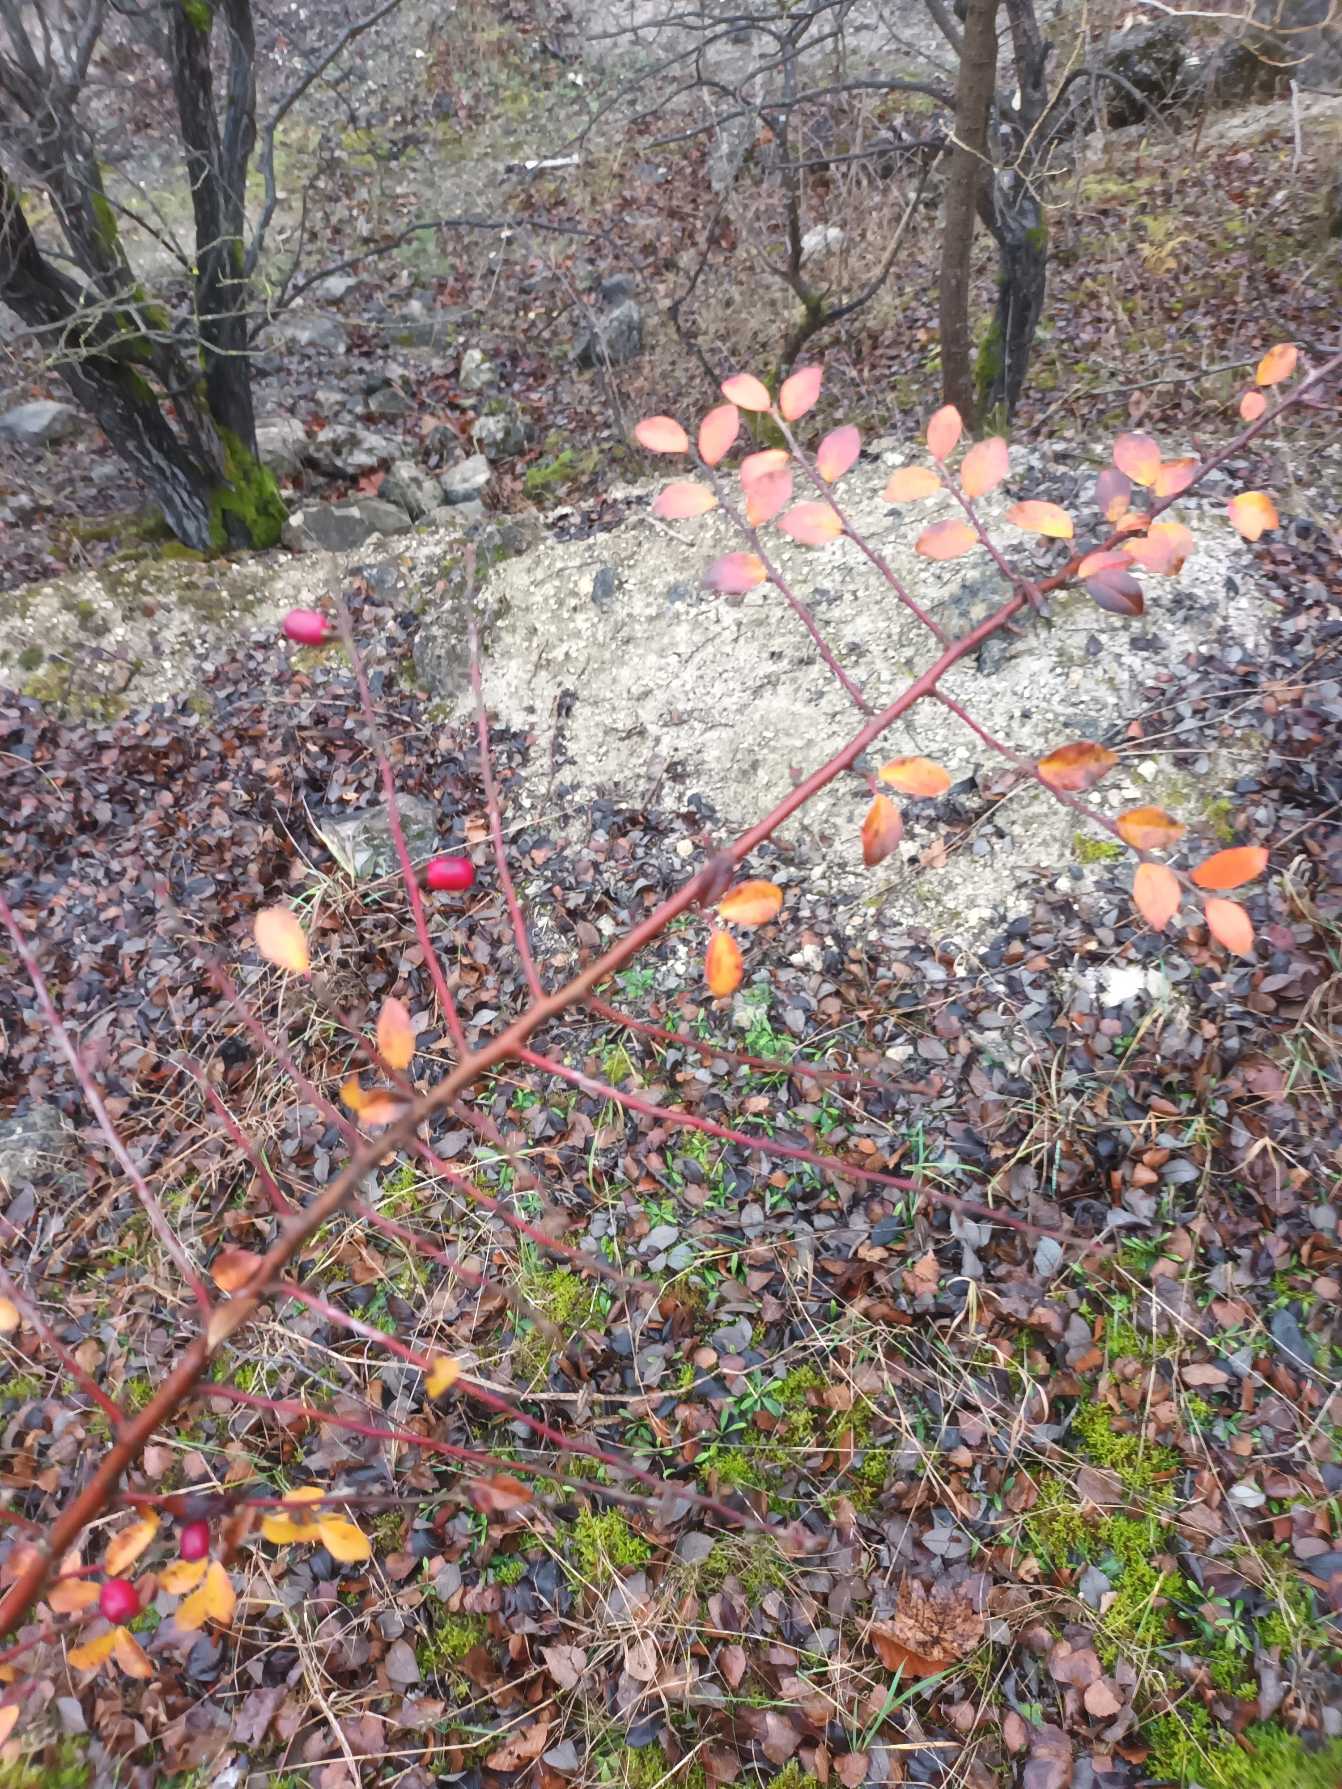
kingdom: Plantae
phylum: Tracheophyta
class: Magnoliopsida
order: Rosales
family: Rosaceae
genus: Cotoneaster
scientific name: Cotoneaster divaricatus
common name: Vifte-dværgmispel
